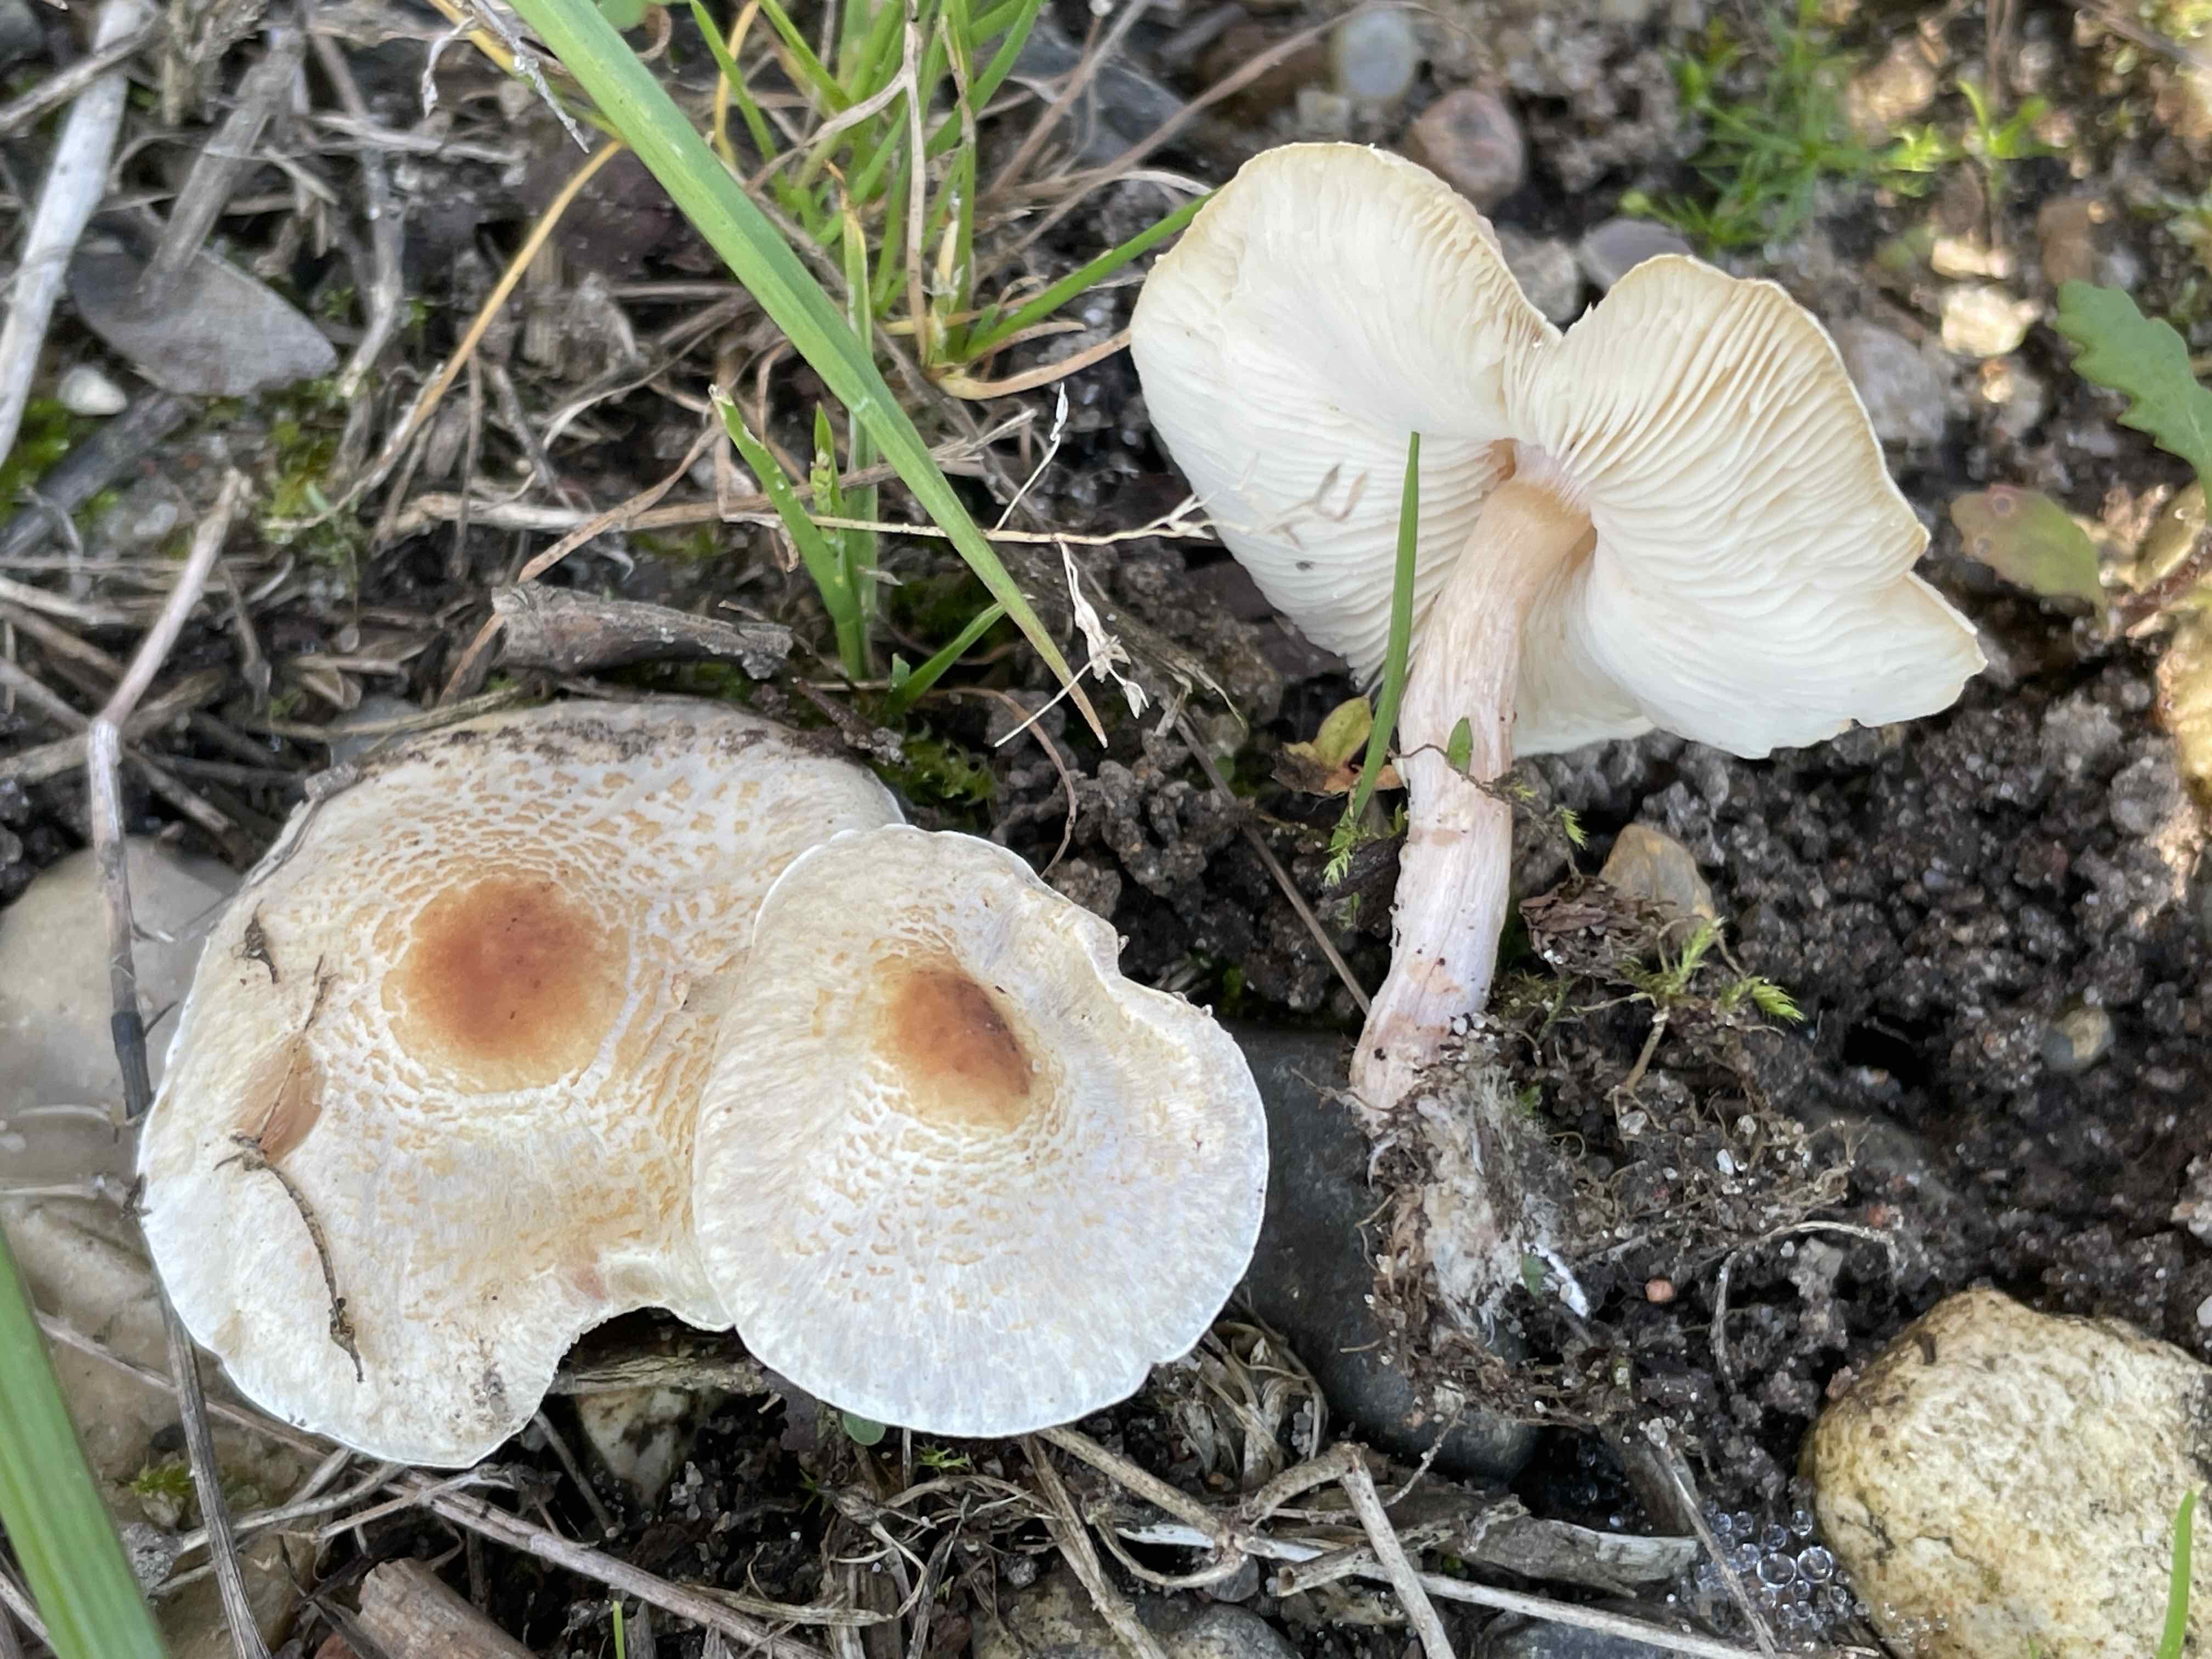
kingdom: Fungi
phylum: Basidiomycota
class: Agaricomycetes
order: Agaricales
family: Agaricaceae
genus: Lepiota
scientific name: Lepiota cristata
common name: stinkende parasolhat
